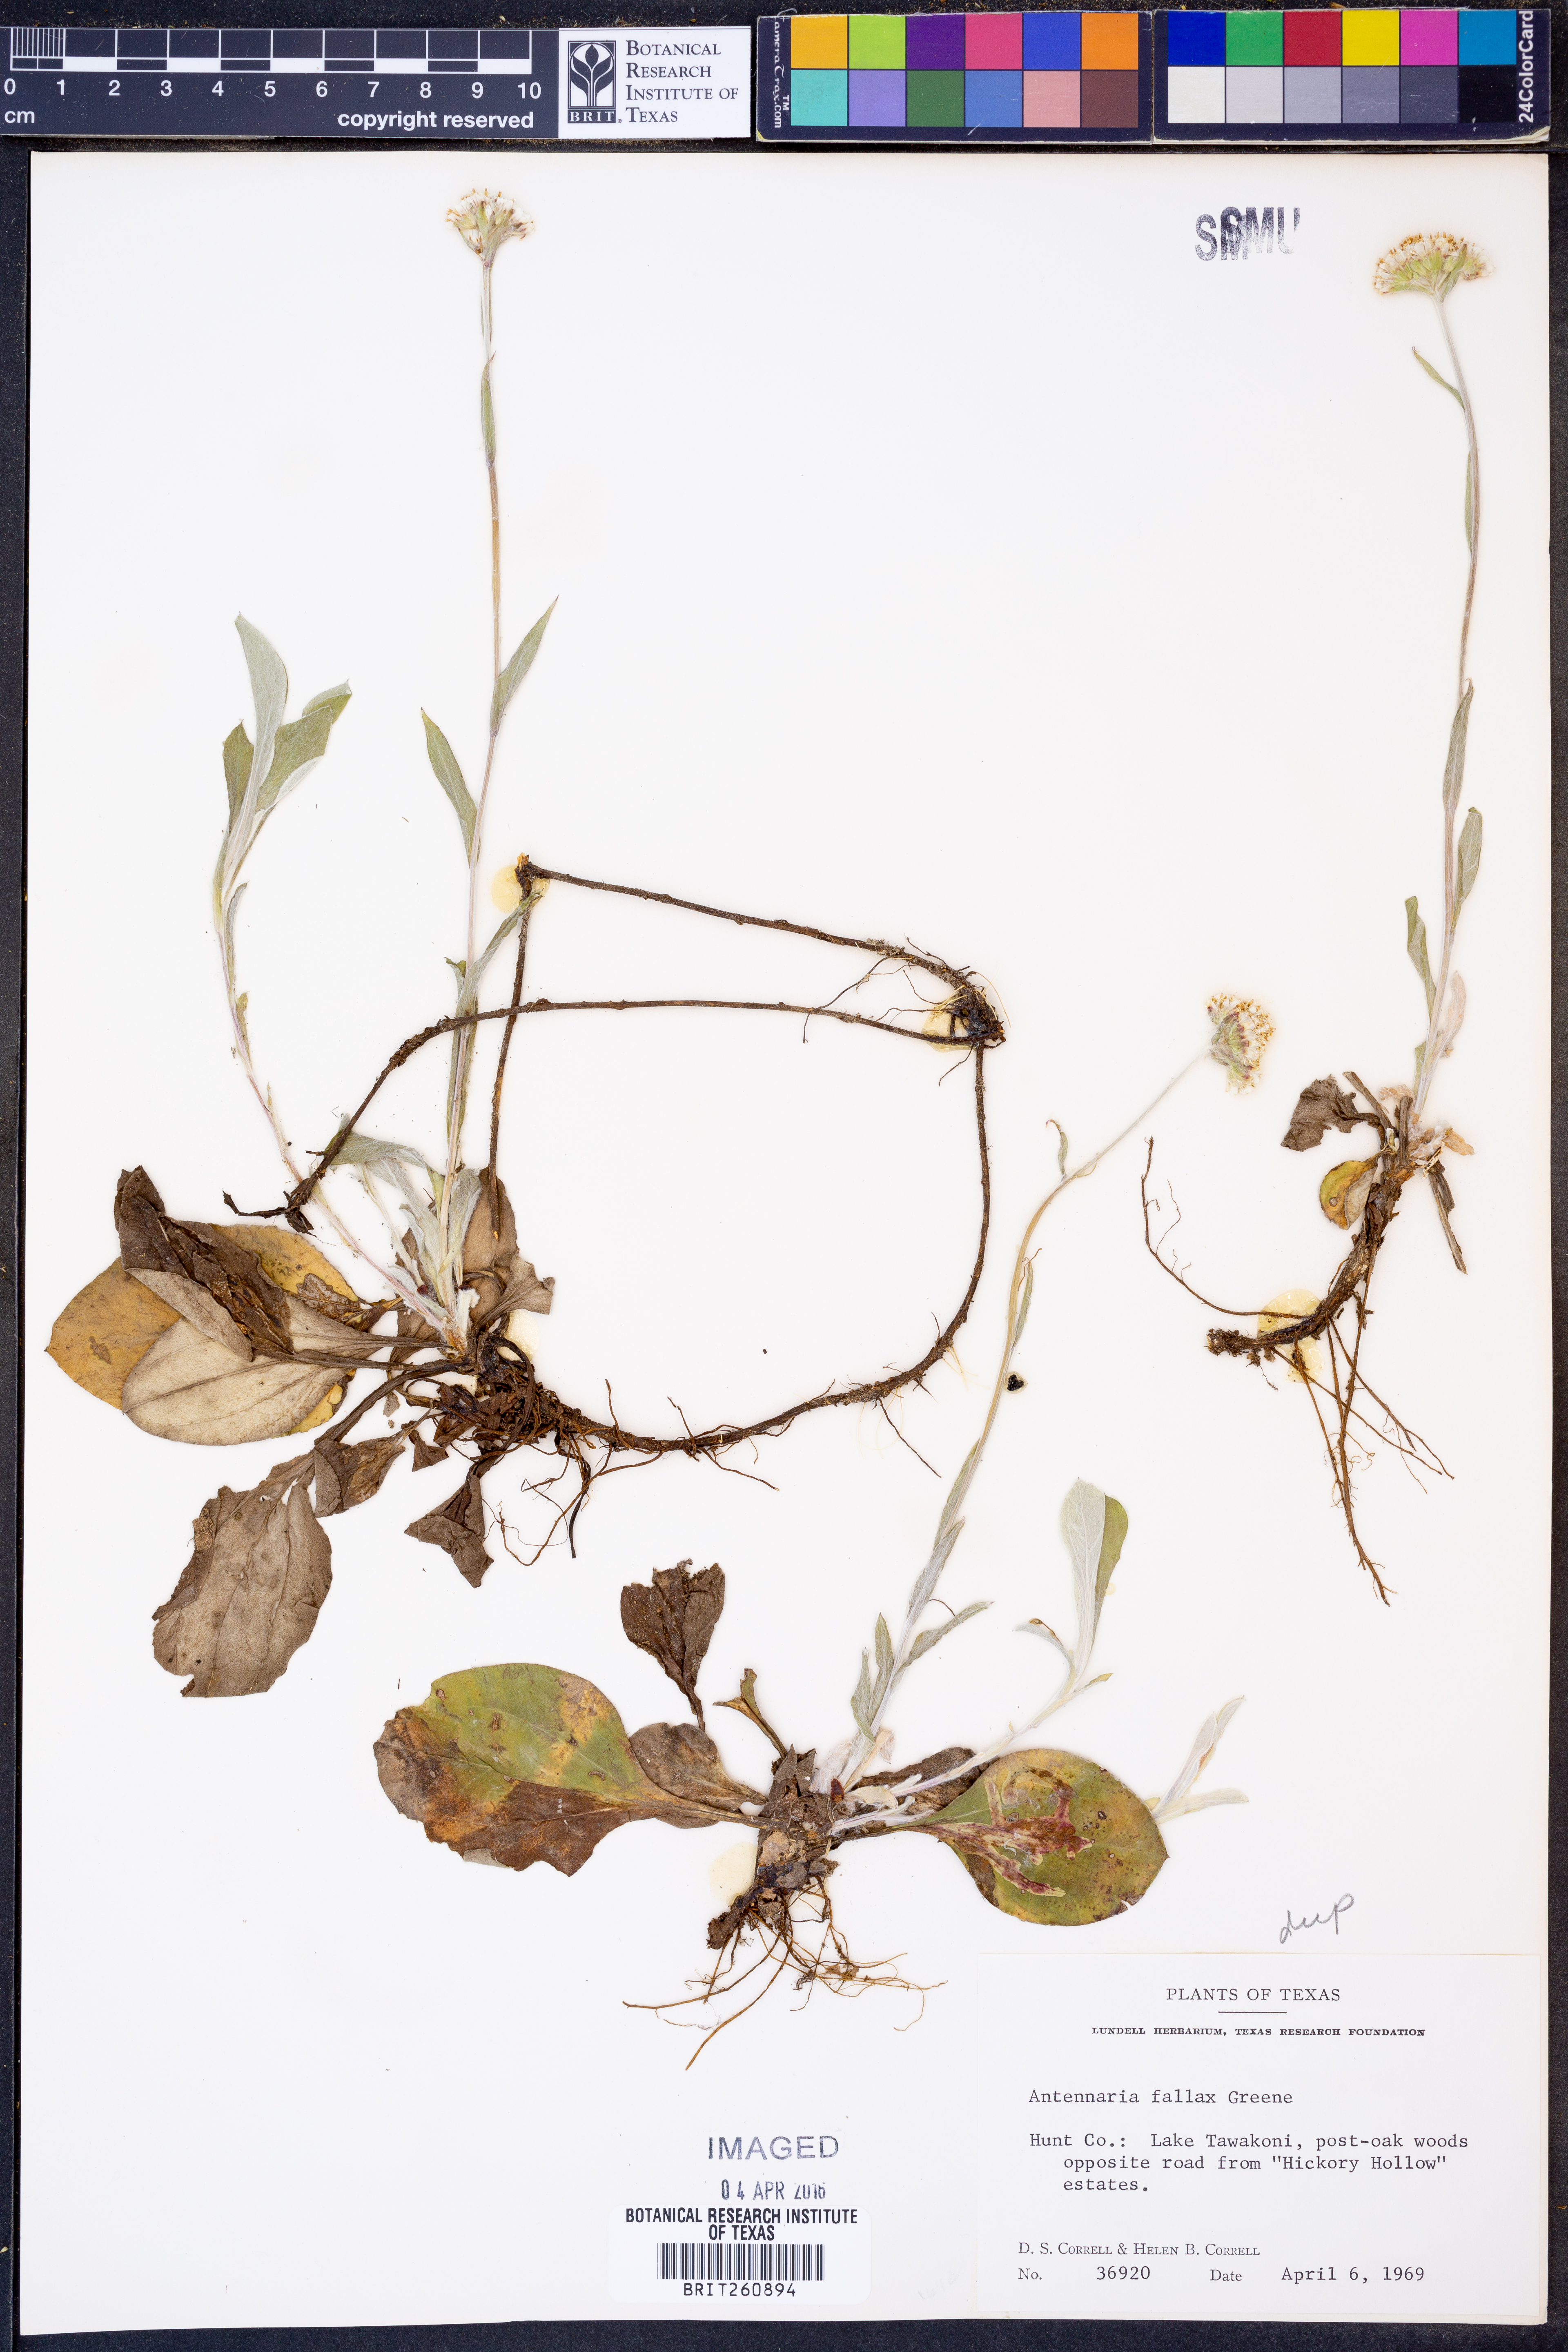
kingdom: Plantae
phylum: Tracheophyta
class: Magnoliopsida
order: Asterales
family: Asteraceae
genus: Antennaria
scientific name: Antennaria parlinii
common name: Parlin's pussytoes
